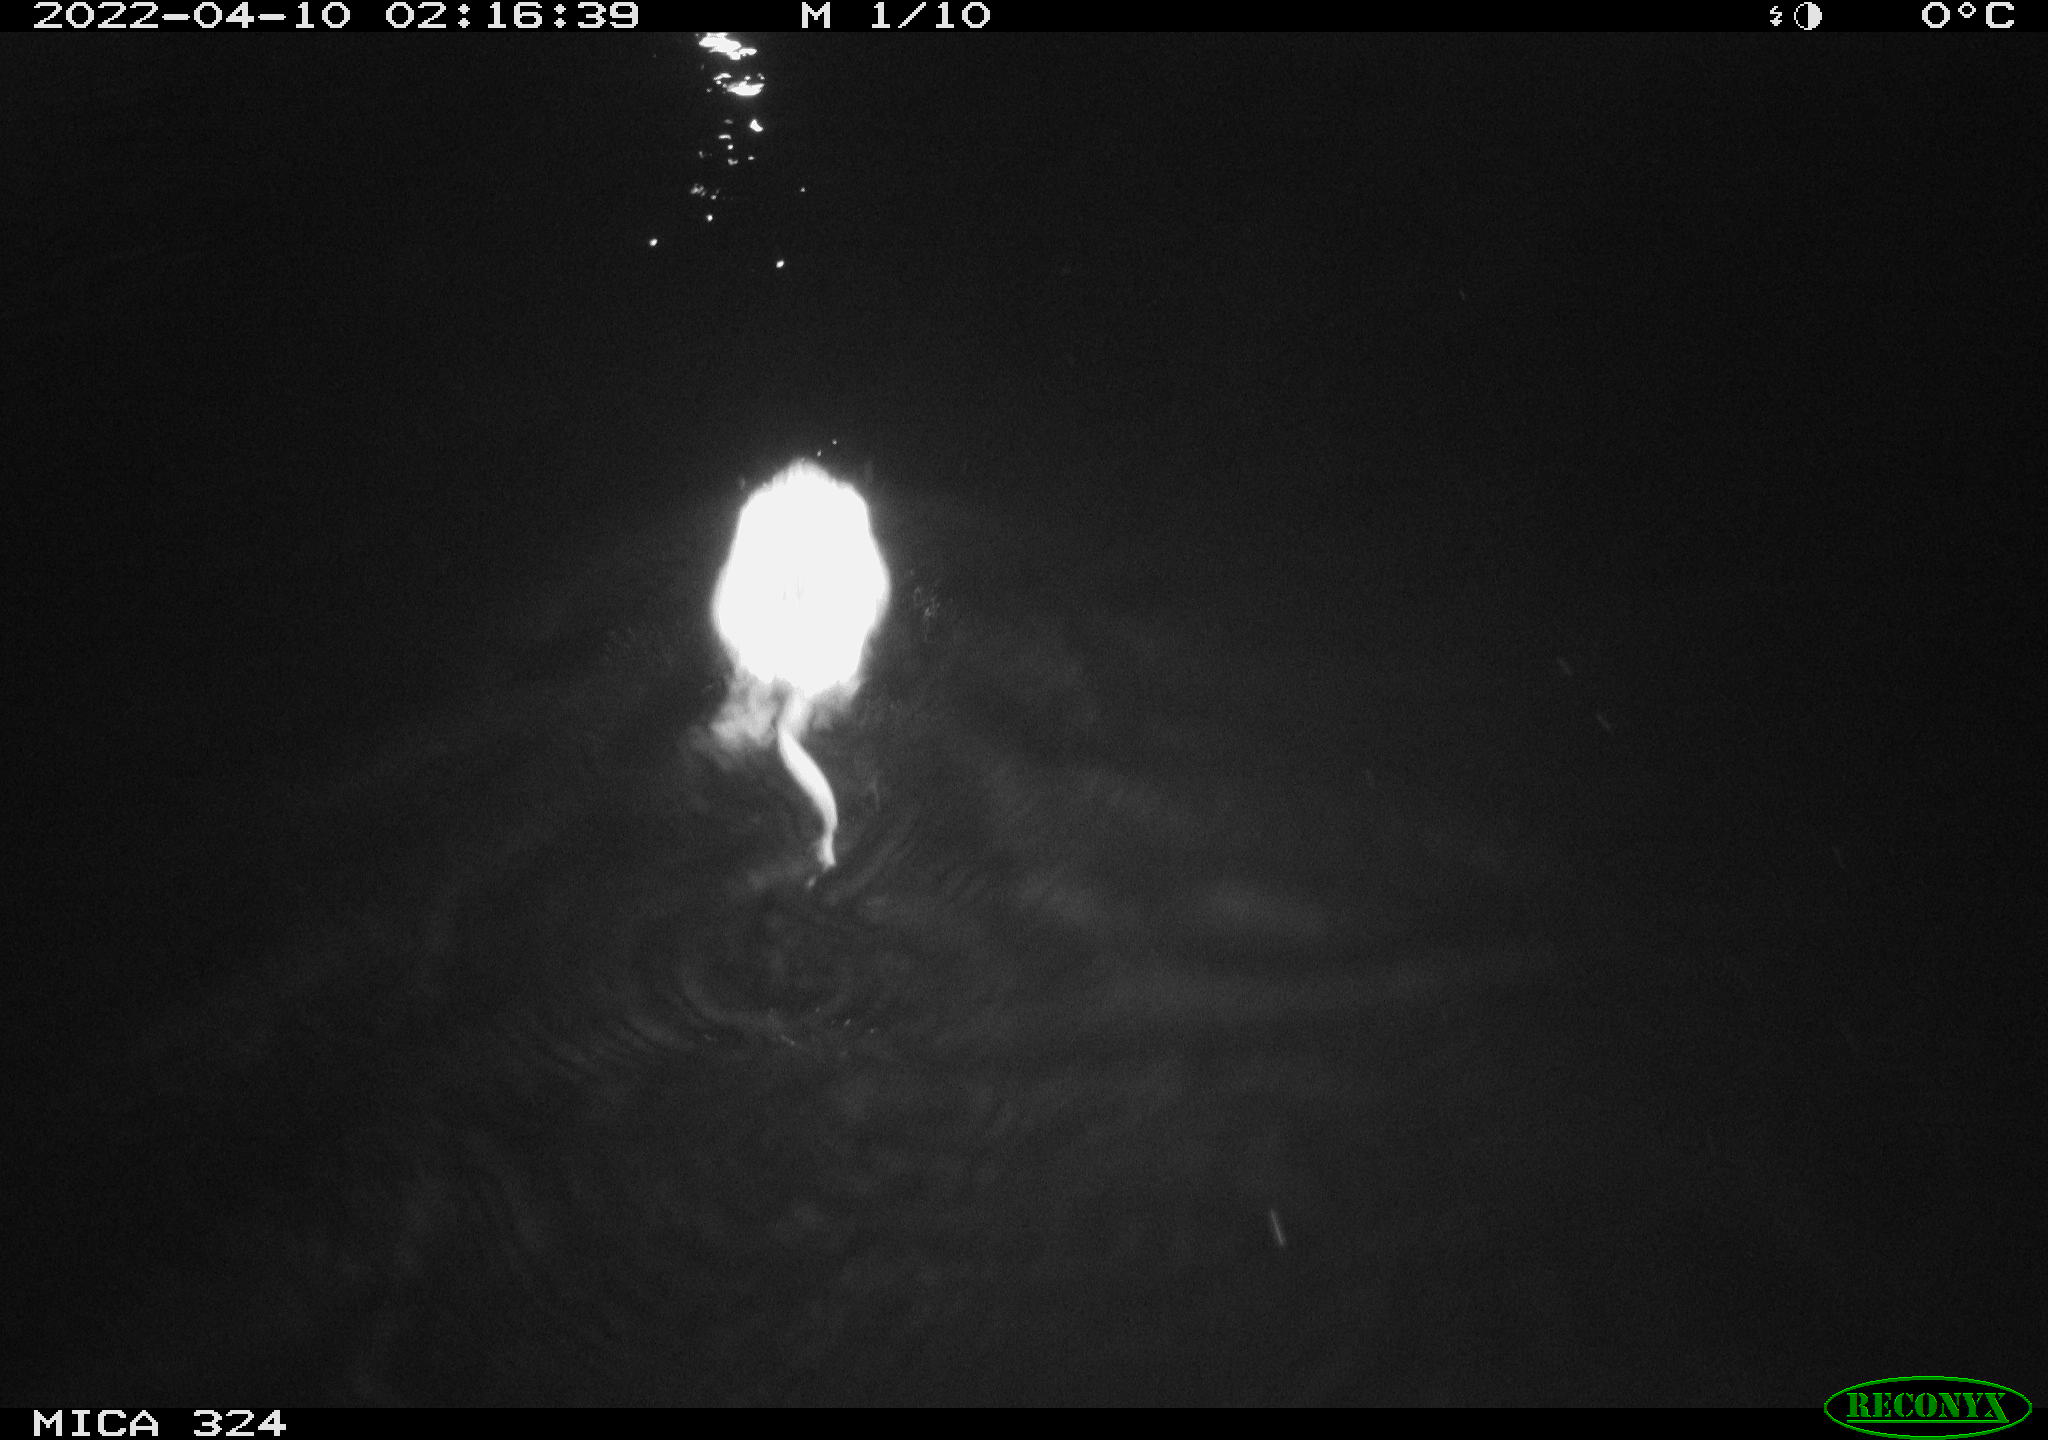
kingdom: Animalia
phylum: Chordata
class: Mammalia
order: Rodentia
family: Cricetidae
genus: Ondatra
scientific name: Ondatra zibethicus
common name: Muskrat
